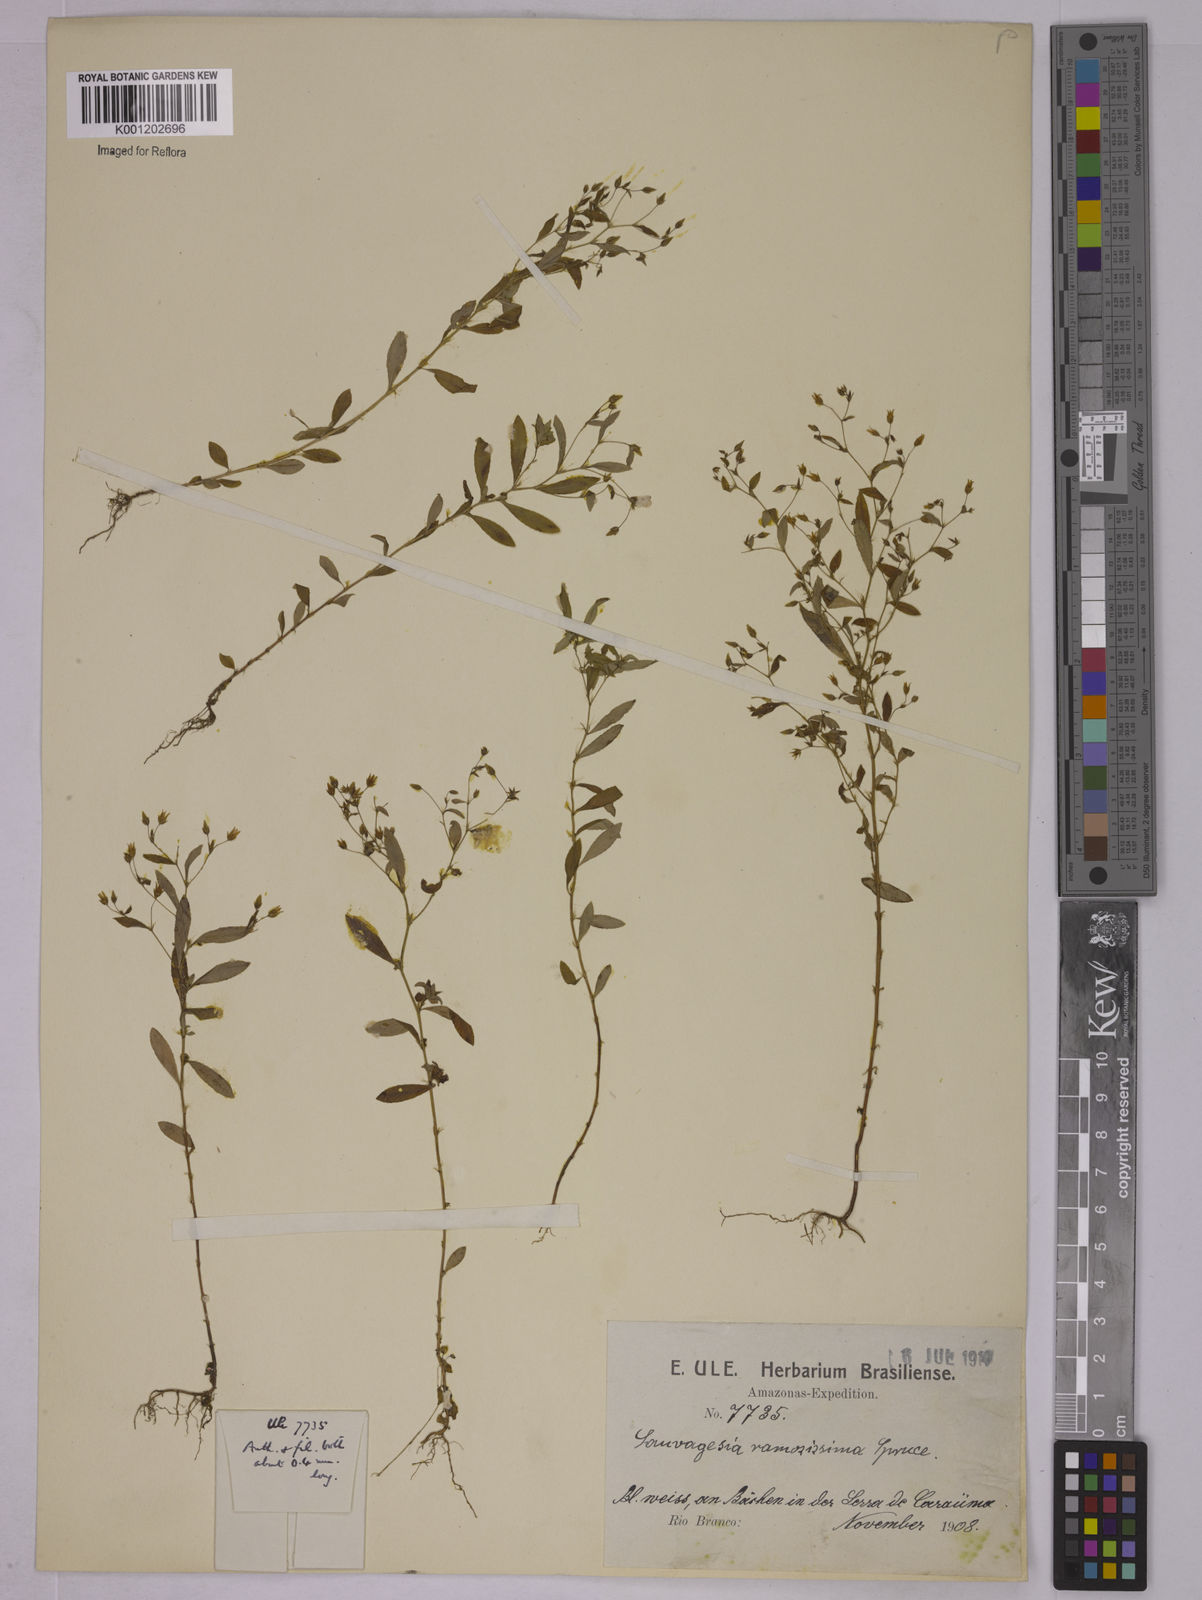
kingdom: Plantae
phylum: Tracheophyta
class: Magnoliopsida
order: Malpighiales
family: Ochnaceae
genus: Sauvagesia
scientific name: Sauvagesia ramosissima
